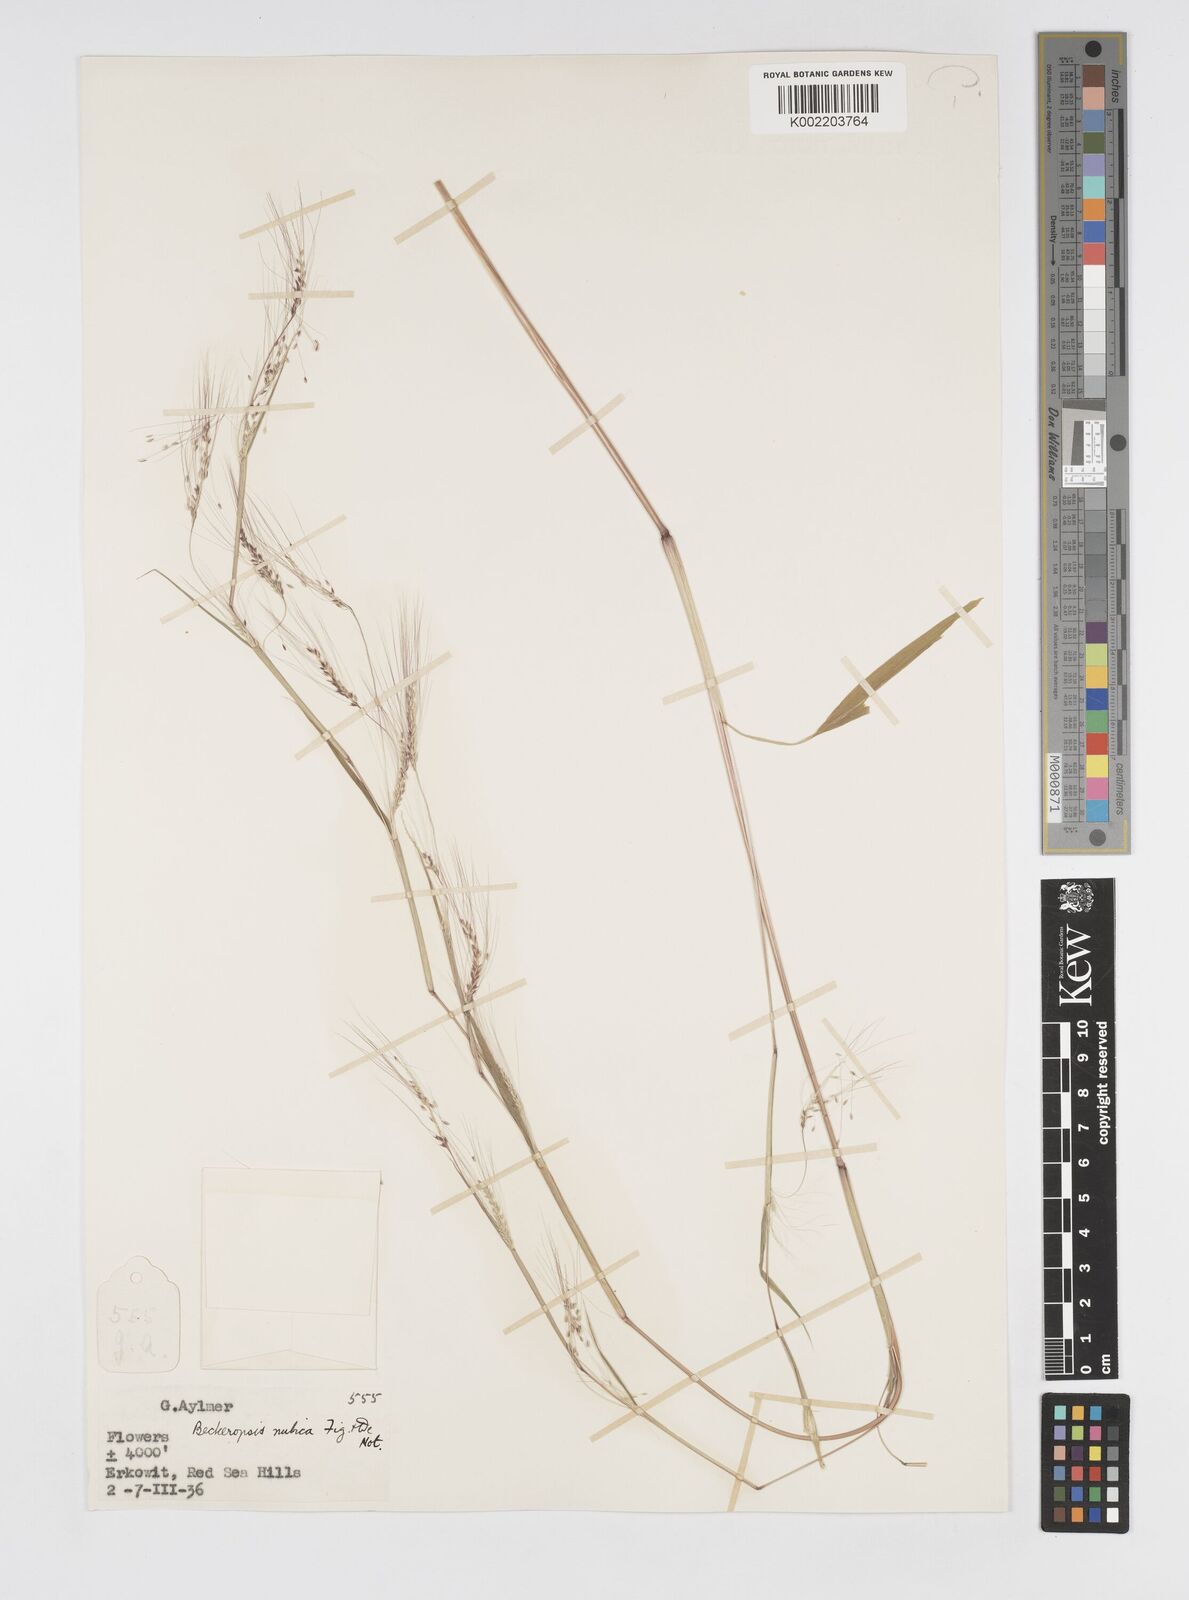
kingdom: Plantae
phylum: Tracheophyta
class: Liliopsida
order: Poales
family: Poaceae
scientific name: Poaceae
